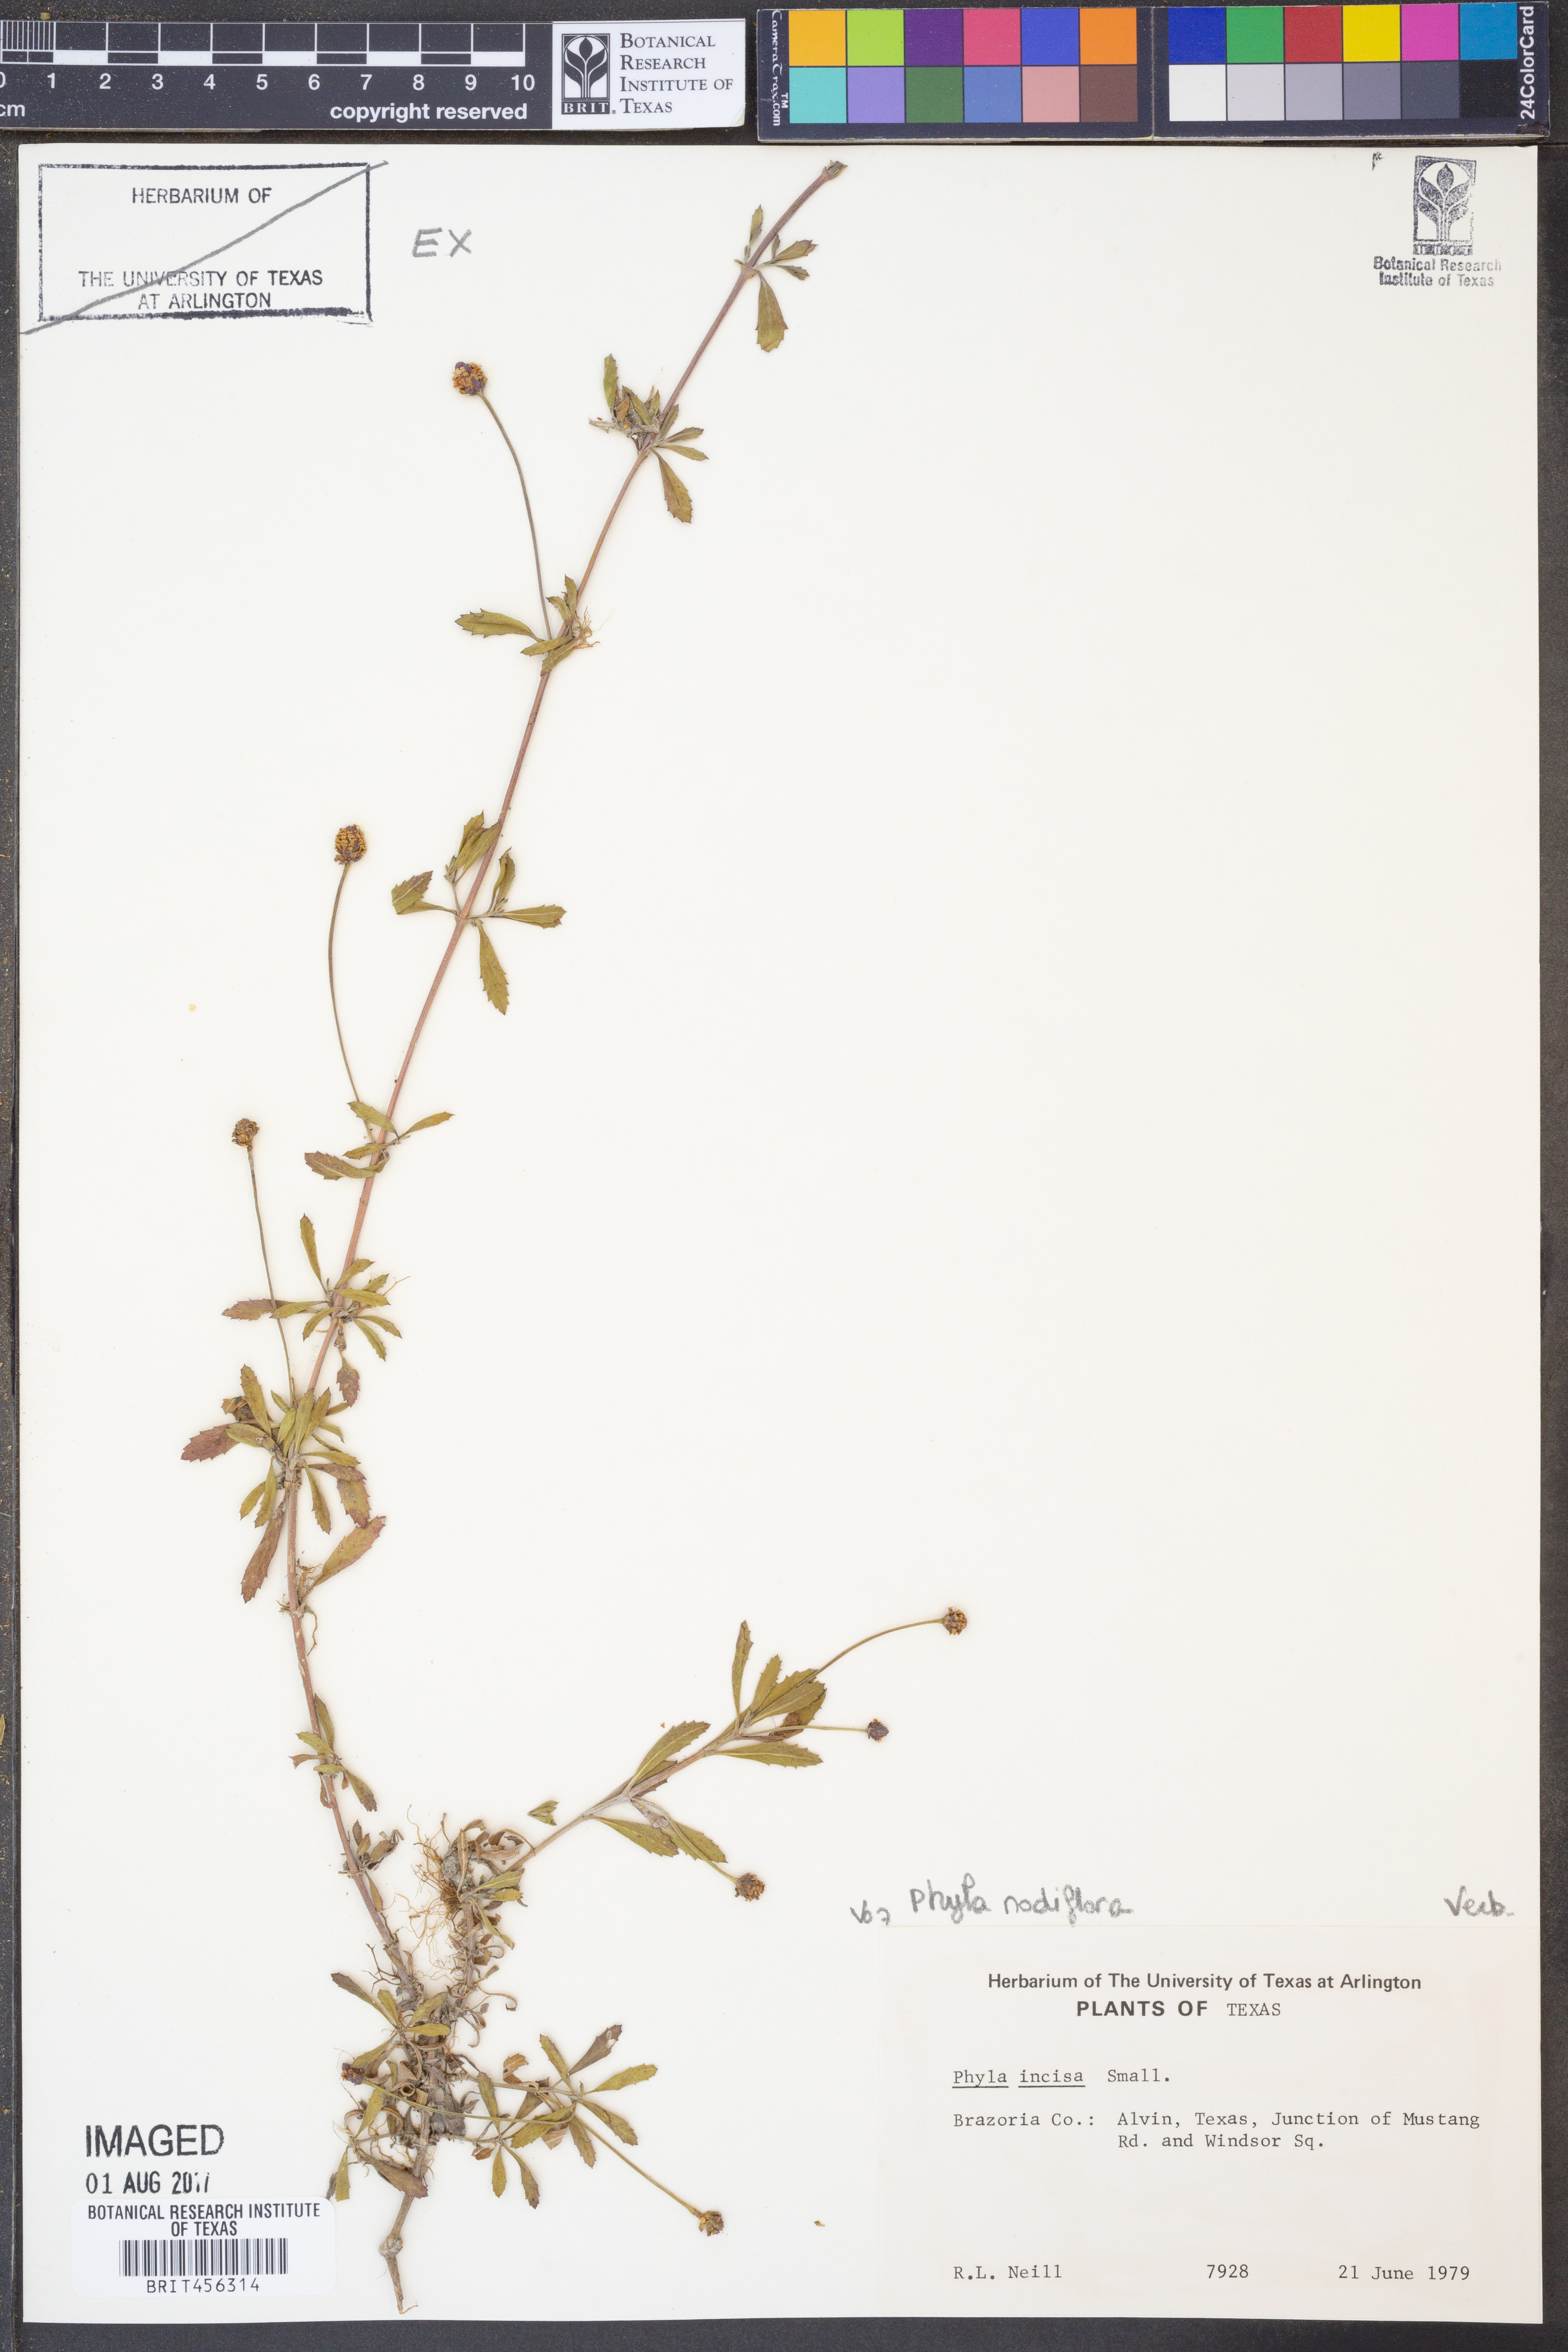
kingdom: Plantae
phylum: Tracheophyta
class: Magnoliopsida
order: Lamiales
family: Verbenaceae
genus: Phyla
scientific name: Phyla nodiflora
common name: Frogfruit
